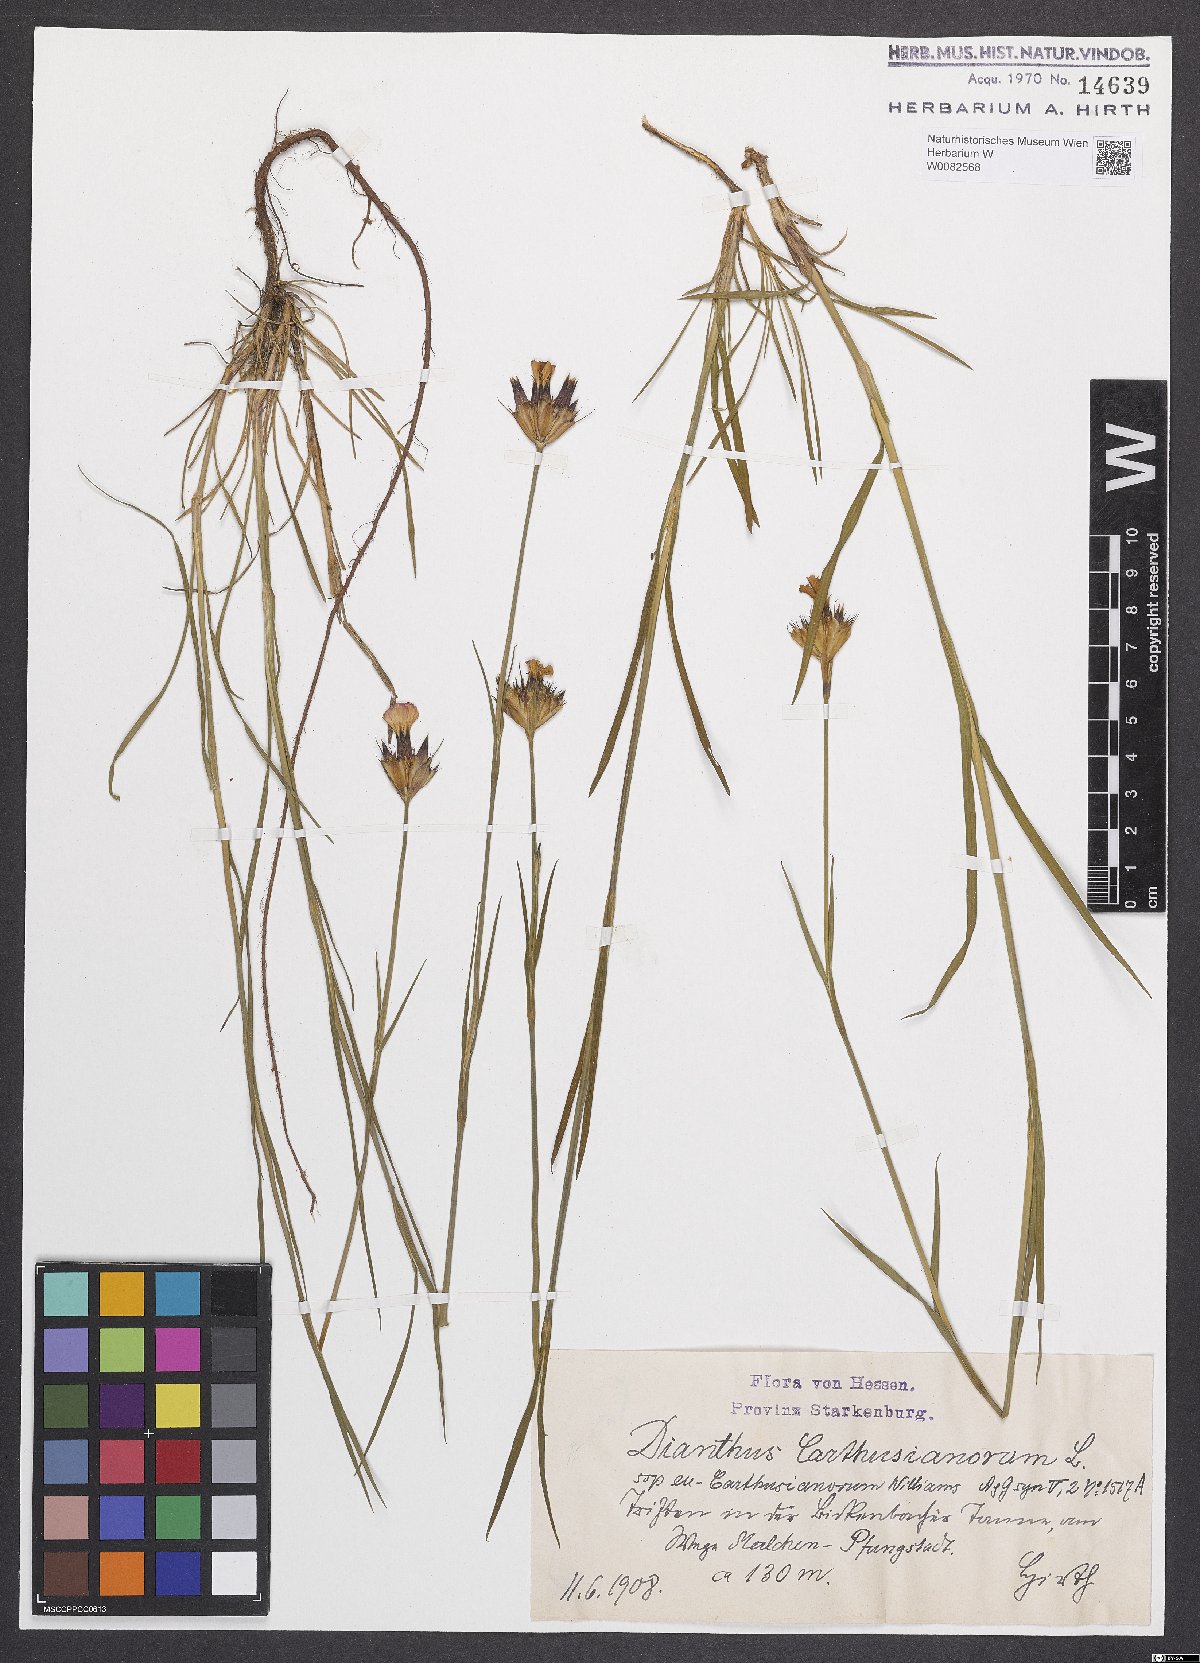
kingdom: Plantae
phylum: Tracheophyta
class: Magnoliopsida
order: Caryophyllales
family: Caryophyllaceae
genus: Dianthus
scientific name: Dianthus carthusianorum
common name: Carthusian pink
